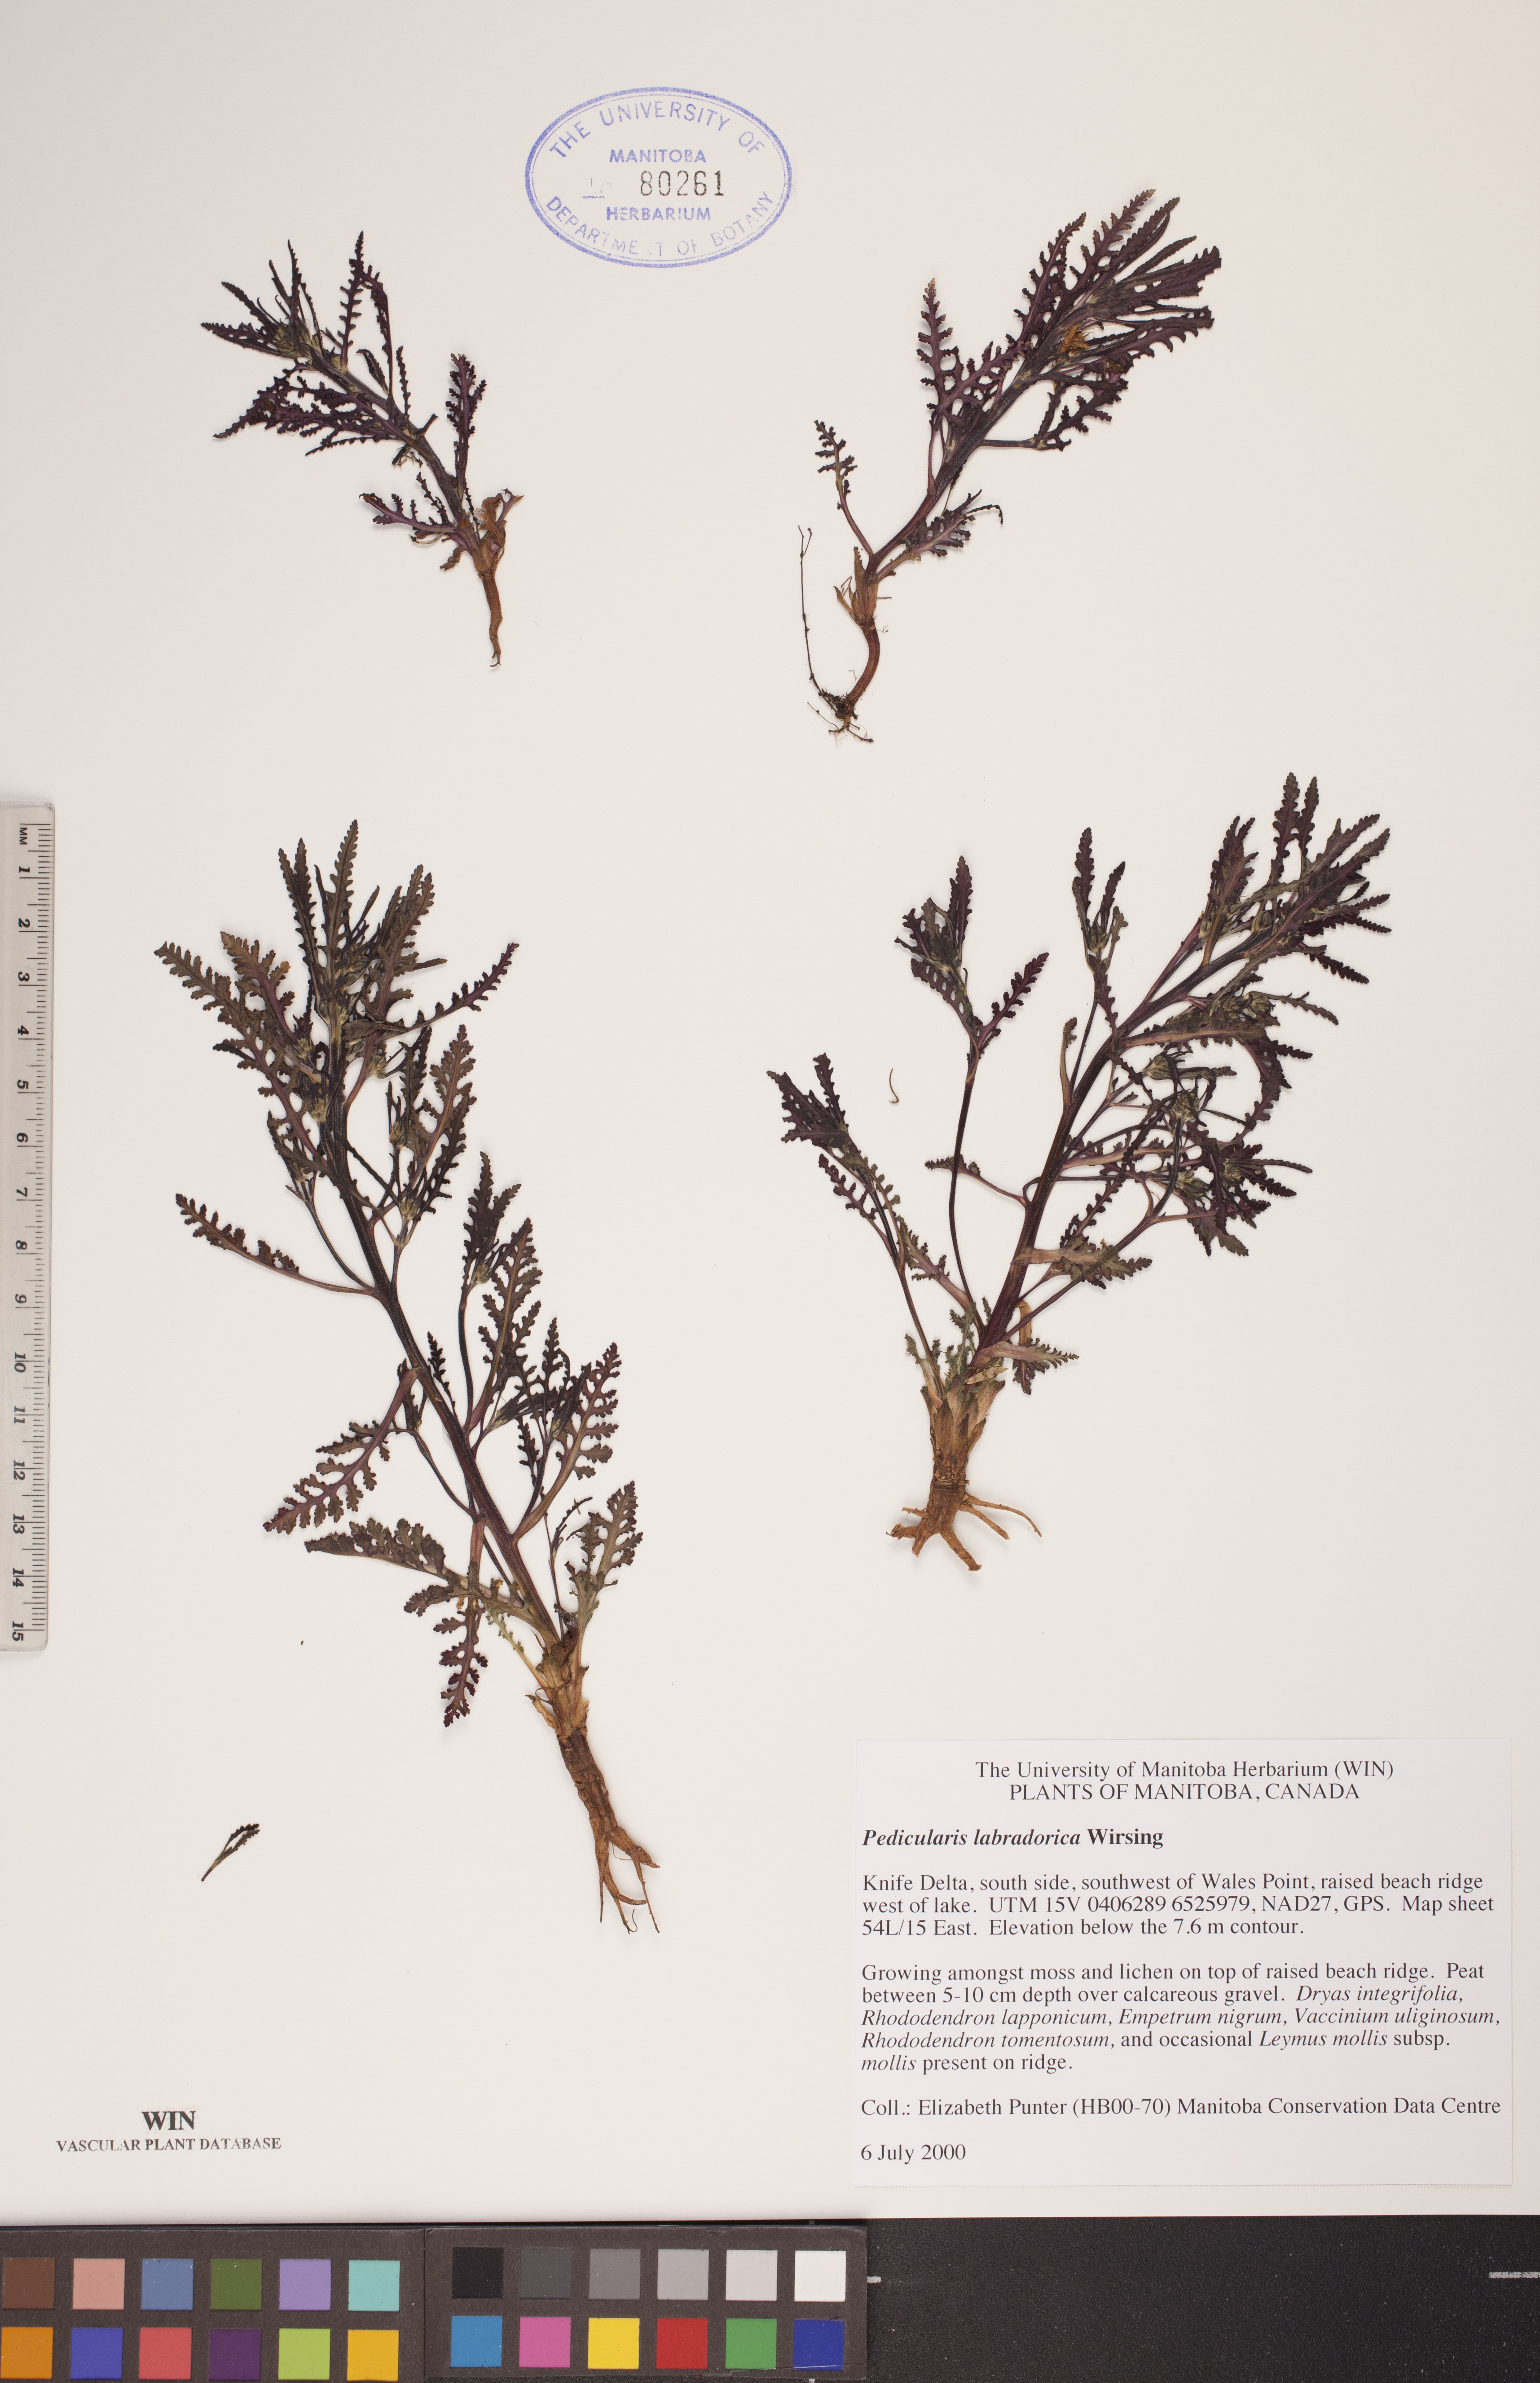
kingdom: Plantae
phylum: Tracheophyta
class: Magnoliopsida
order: Lamiales
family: Orobanchaceae
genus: Pedicularis
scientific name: Pedicularis labradorica
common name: Labrador lousewort
